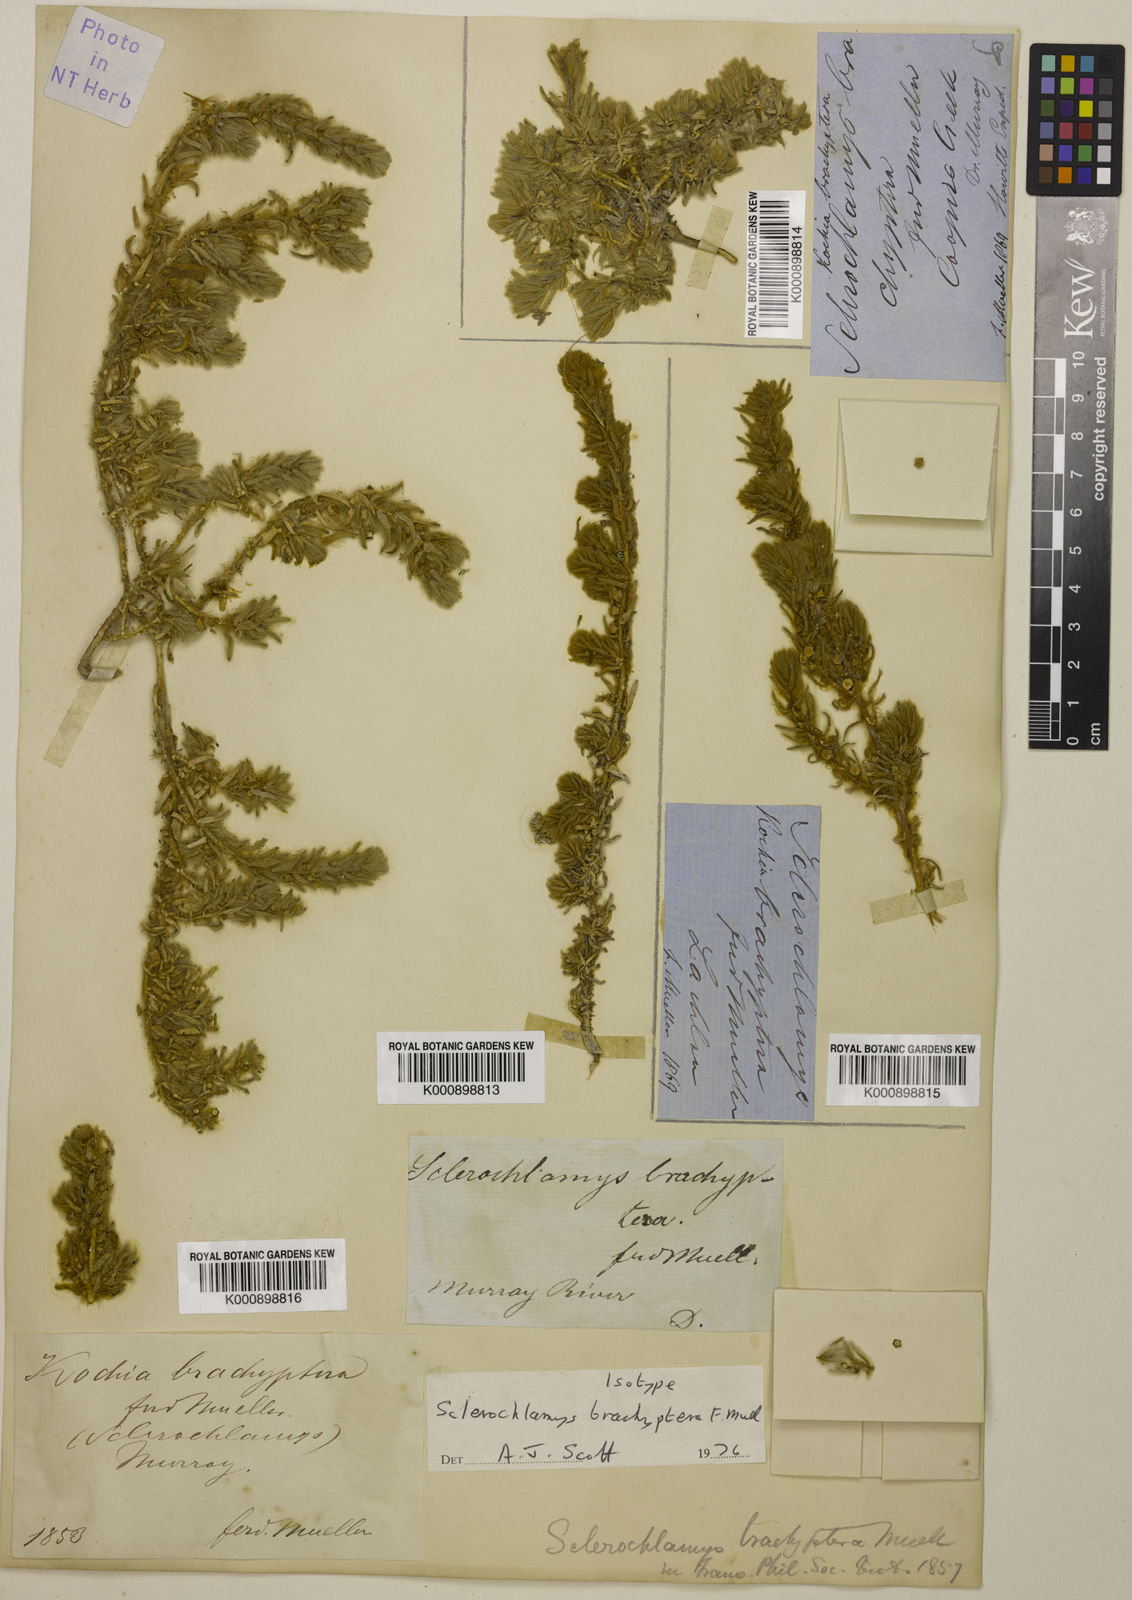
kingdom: Plantae
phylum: Tracheophyta
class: Magnoliopsida
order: Caryophyllales
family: Amaranthaceae
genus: Sclerolaena
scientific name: Sclerolaena brachyptera
